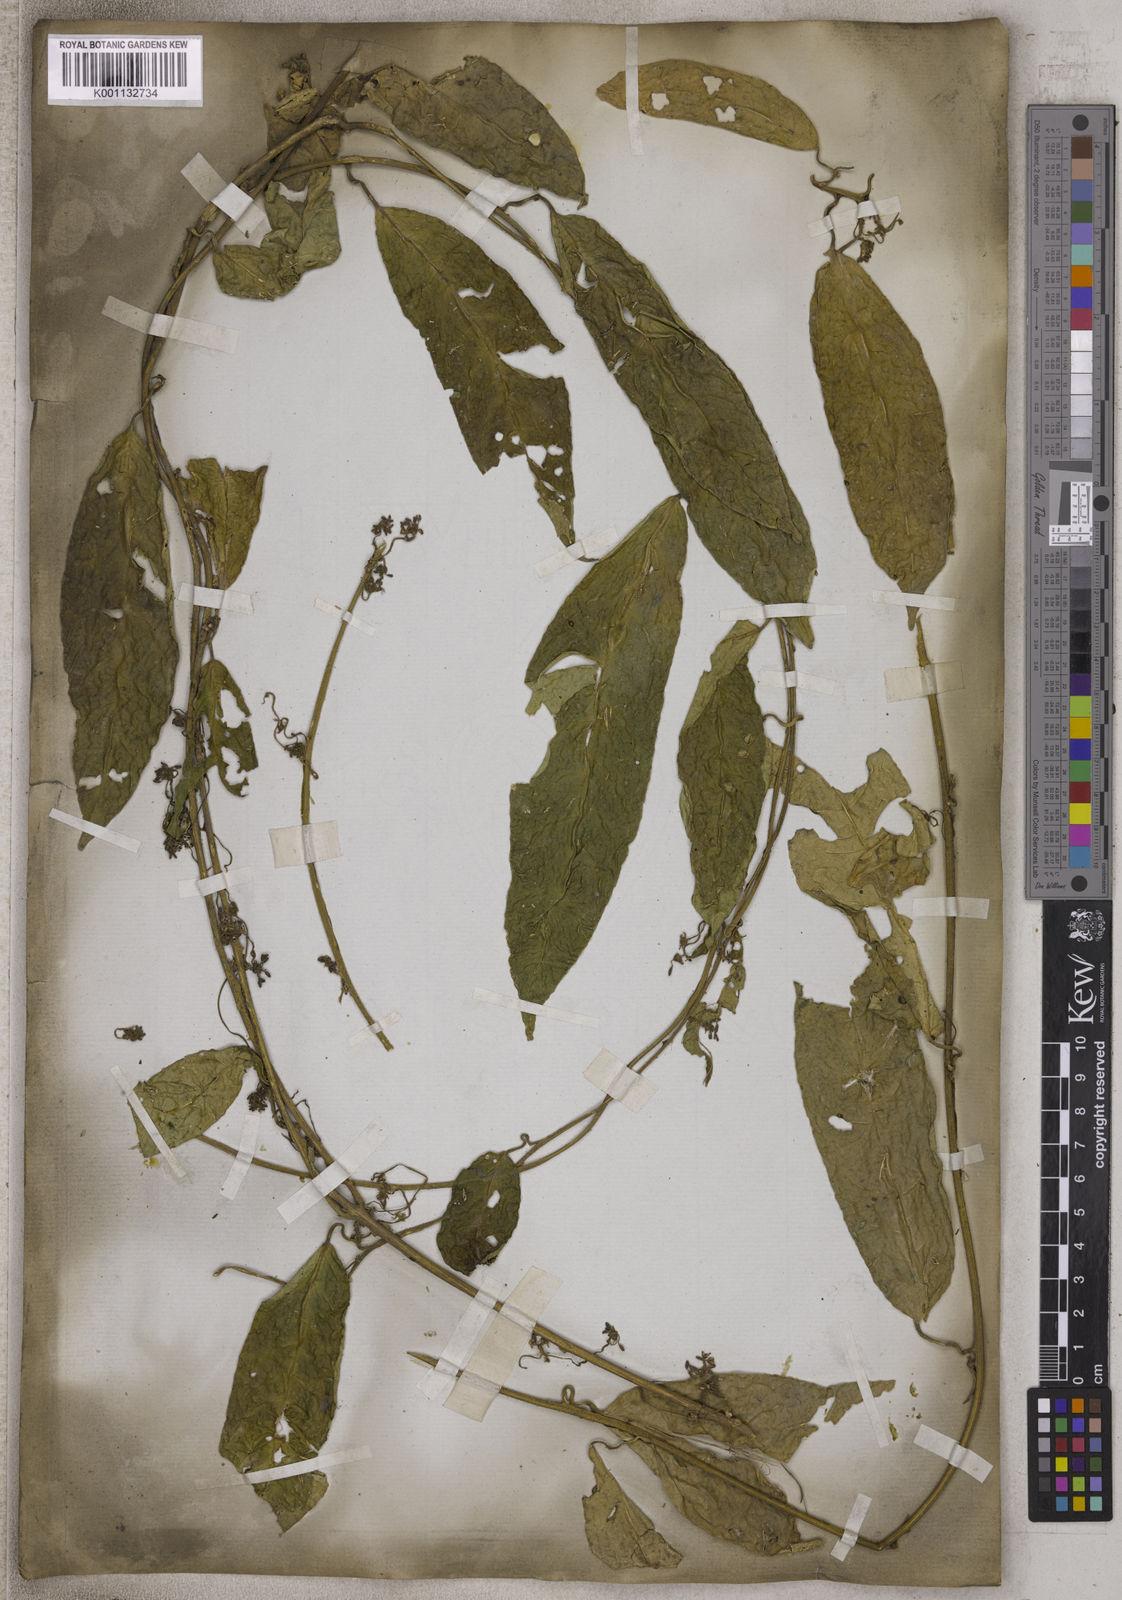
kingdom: Plantae
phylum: Tracheophyta
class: Magnoliopsida
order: Icacinales
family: Icacinaceae
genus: Miquelia
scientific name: Miquelia caudata
